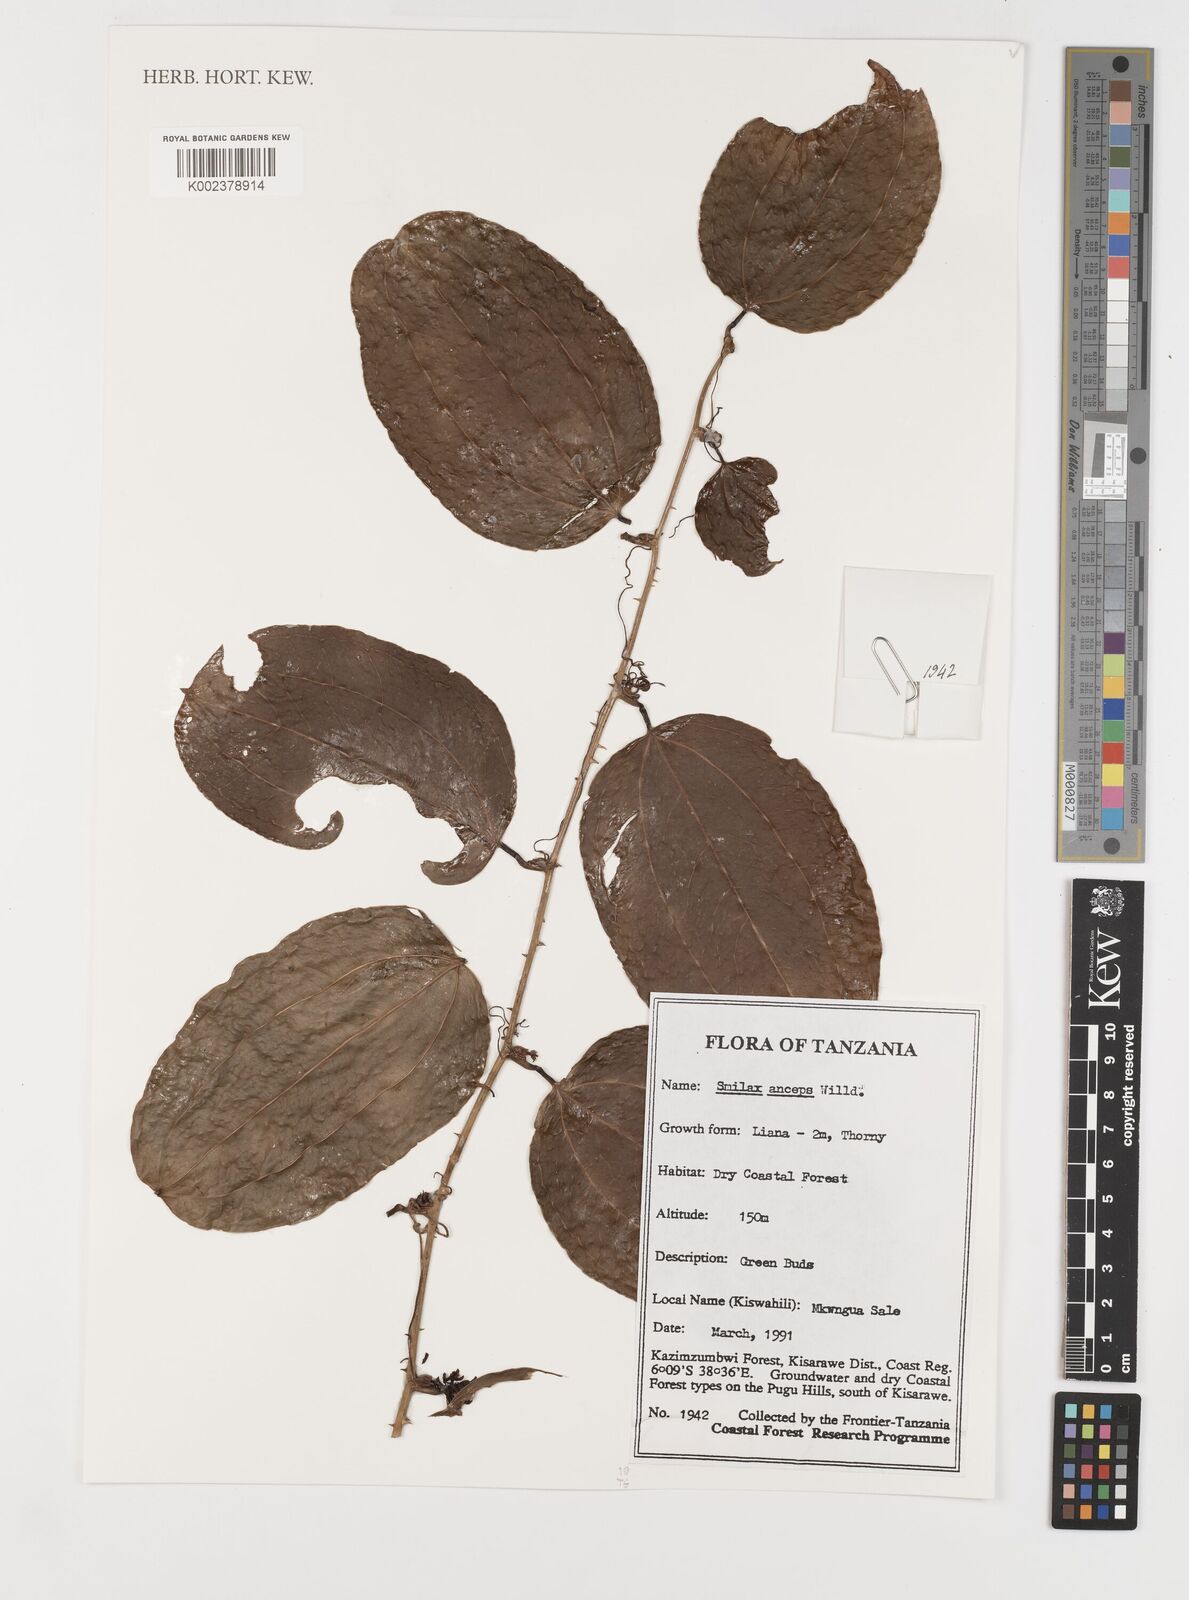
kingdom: Plantae
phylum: Tracheophyta
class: Liliopsida
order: Liliales
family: Smilacaceae
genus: Smilax
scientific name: Smilax anceps
